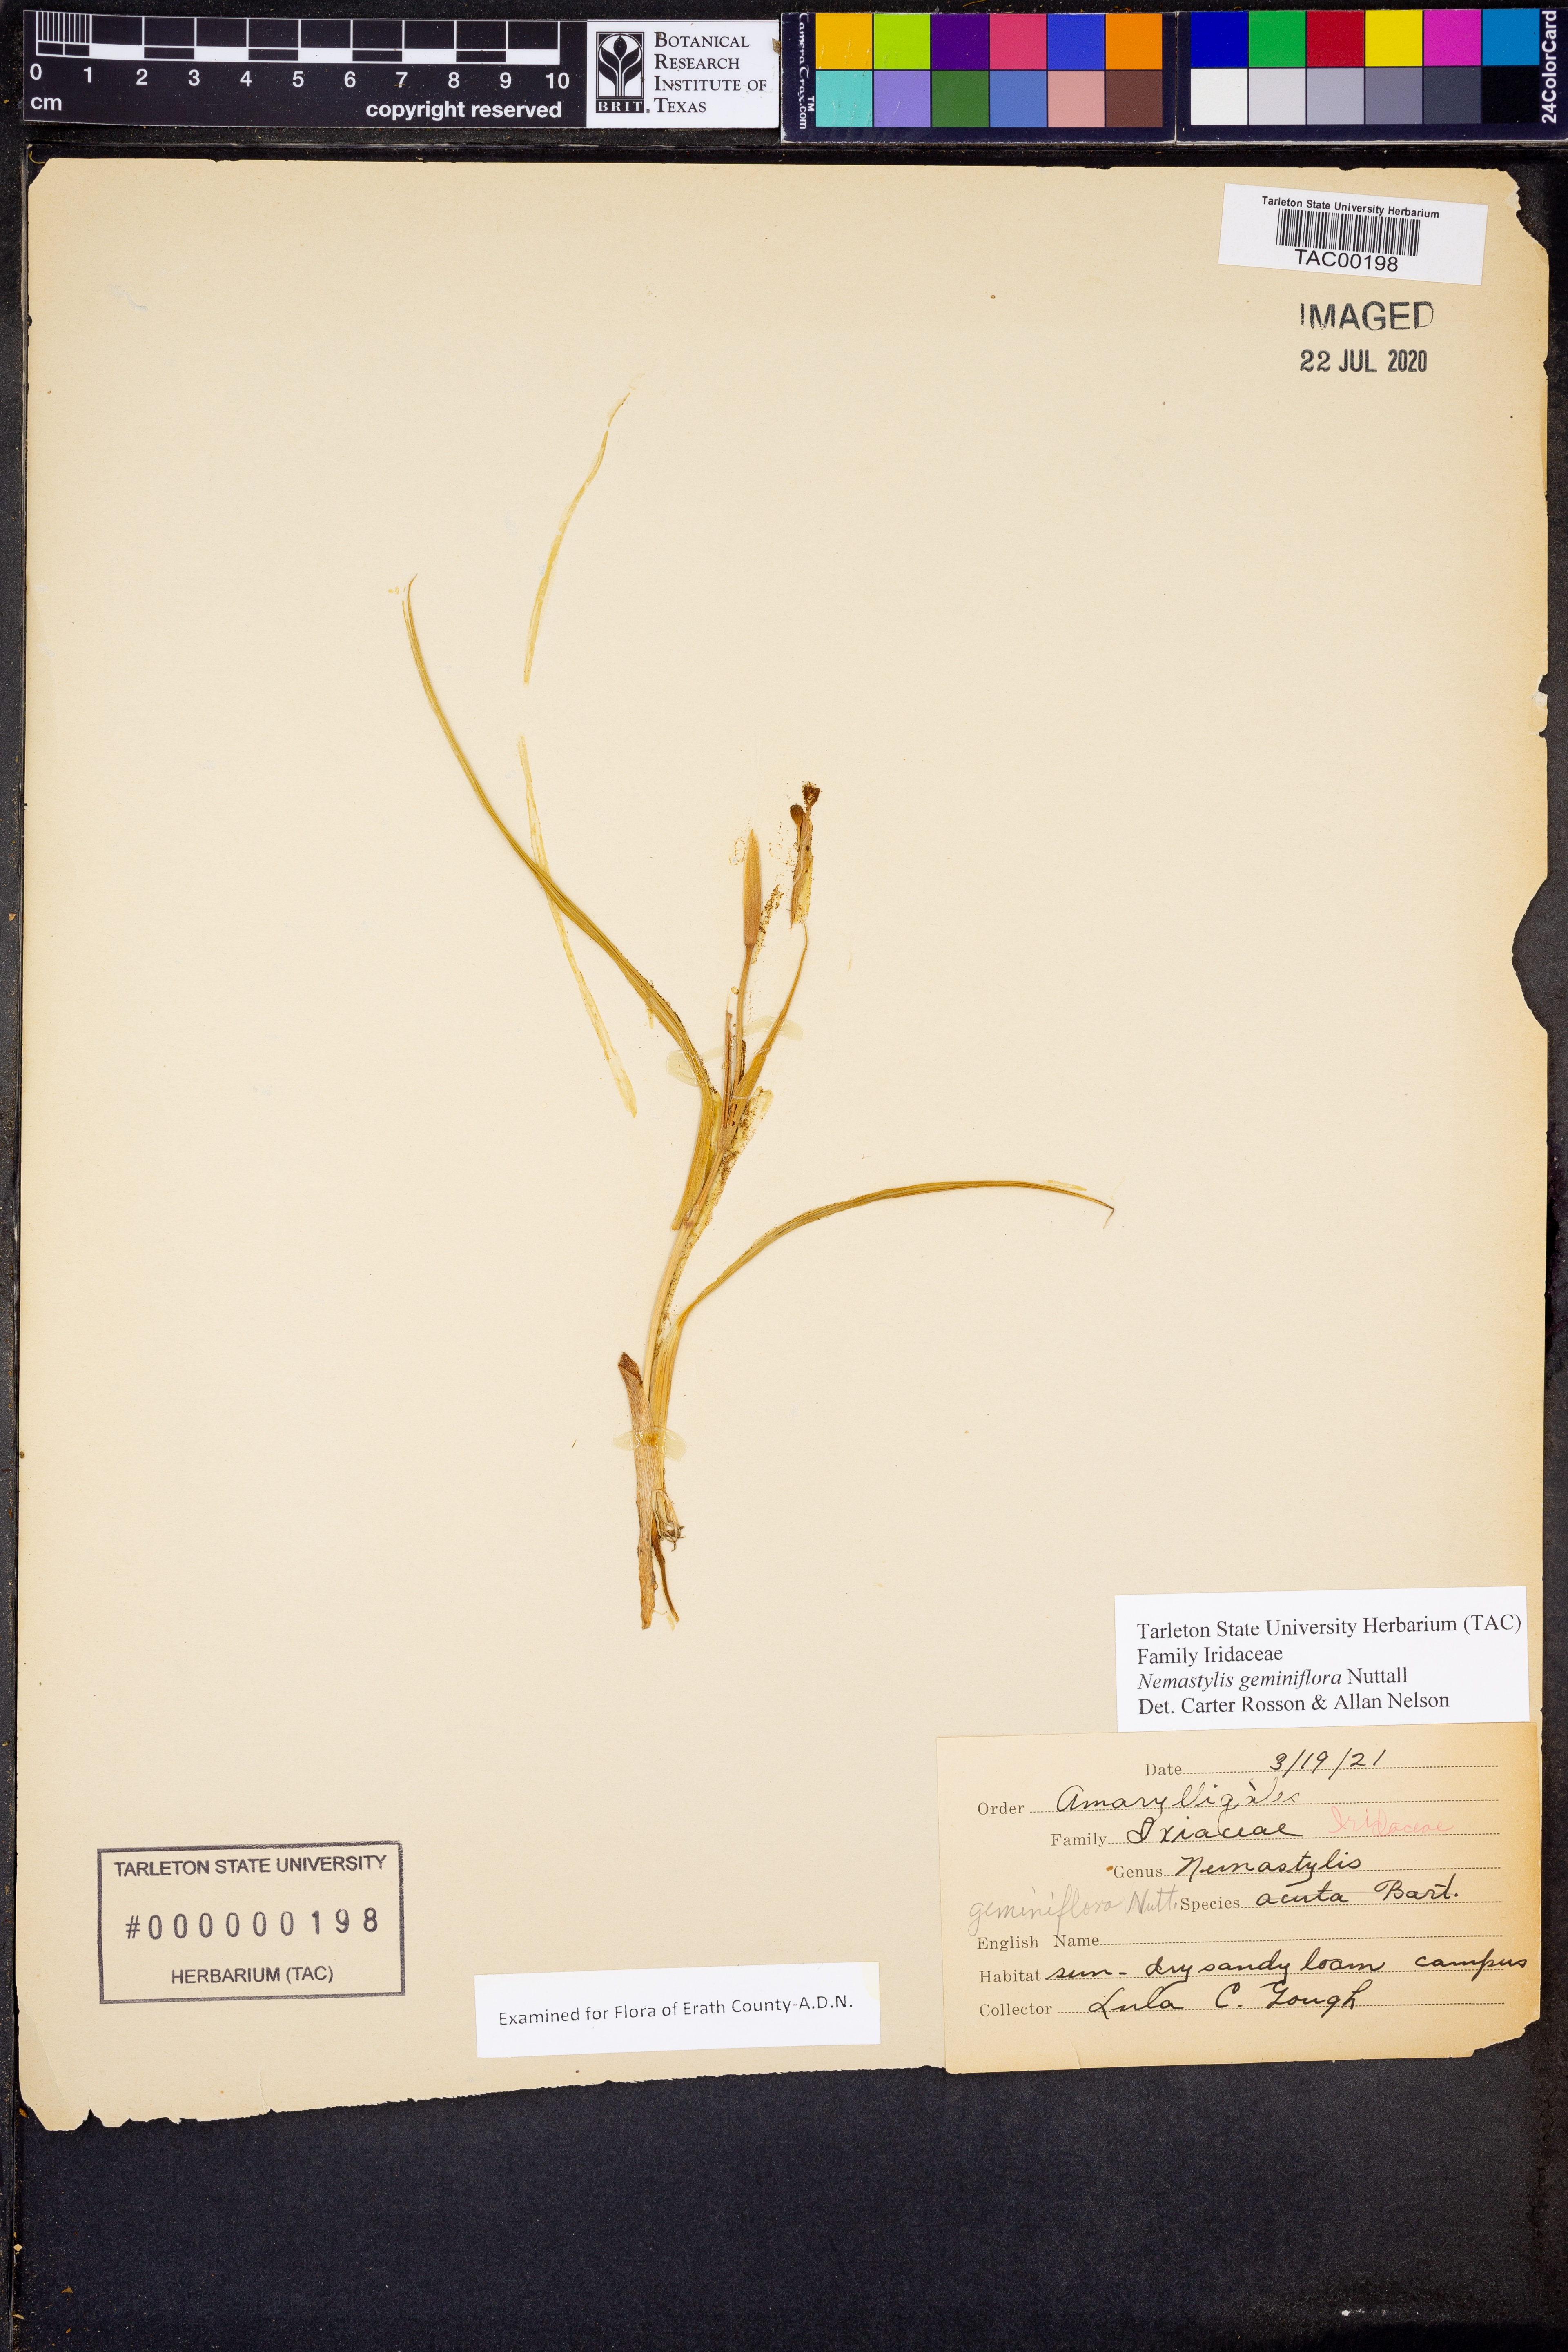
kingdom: Plantae
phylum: Tracheophyta
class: Liliopsida
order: Asparagales
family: Iridaceae
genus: Nemastylis
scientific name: Nemastylis geminiflora
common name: Prairie celestial
